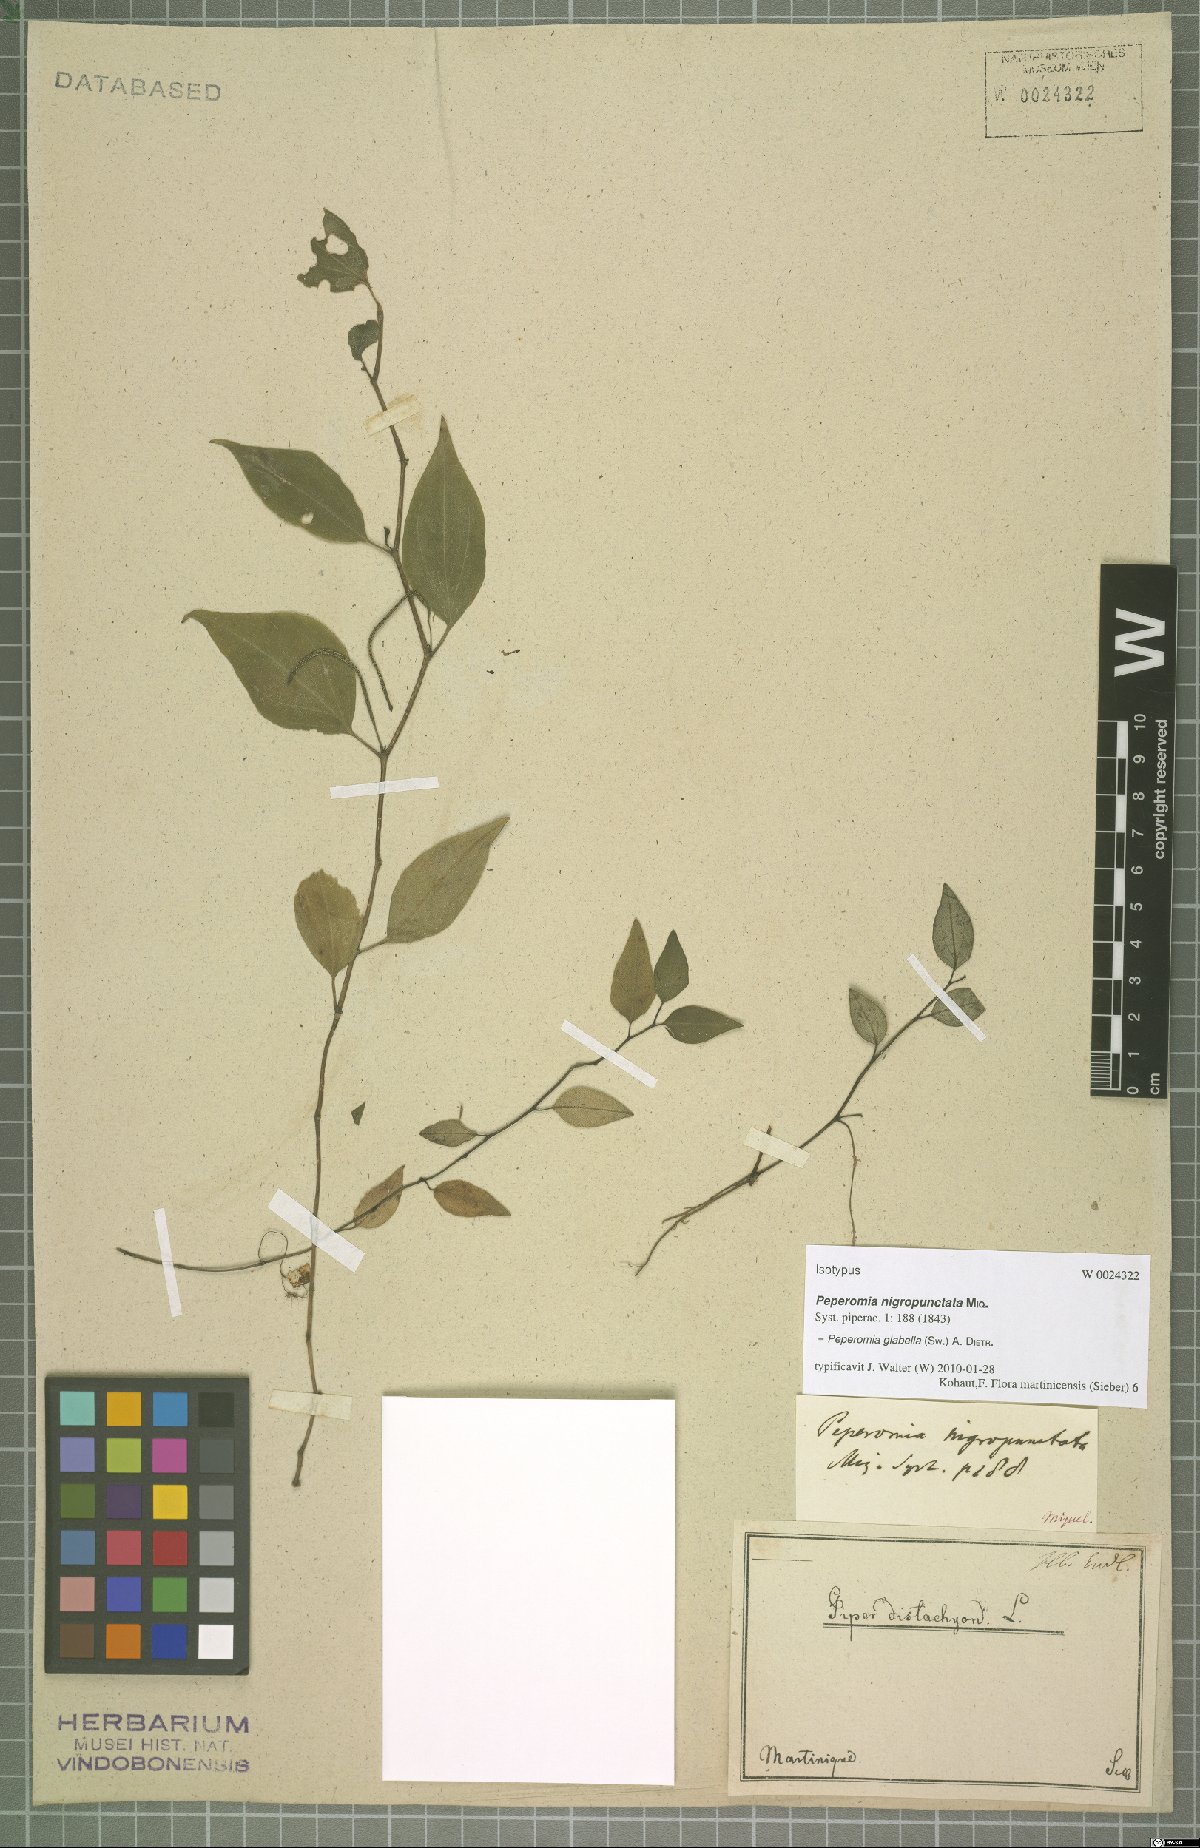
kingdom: Plantae
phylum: Tracheophyta
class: Magnoliopsida
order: Piperales
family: Piperaceae
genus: Peperomia
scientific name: Peperomia glabella
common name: Cypress peperomia
